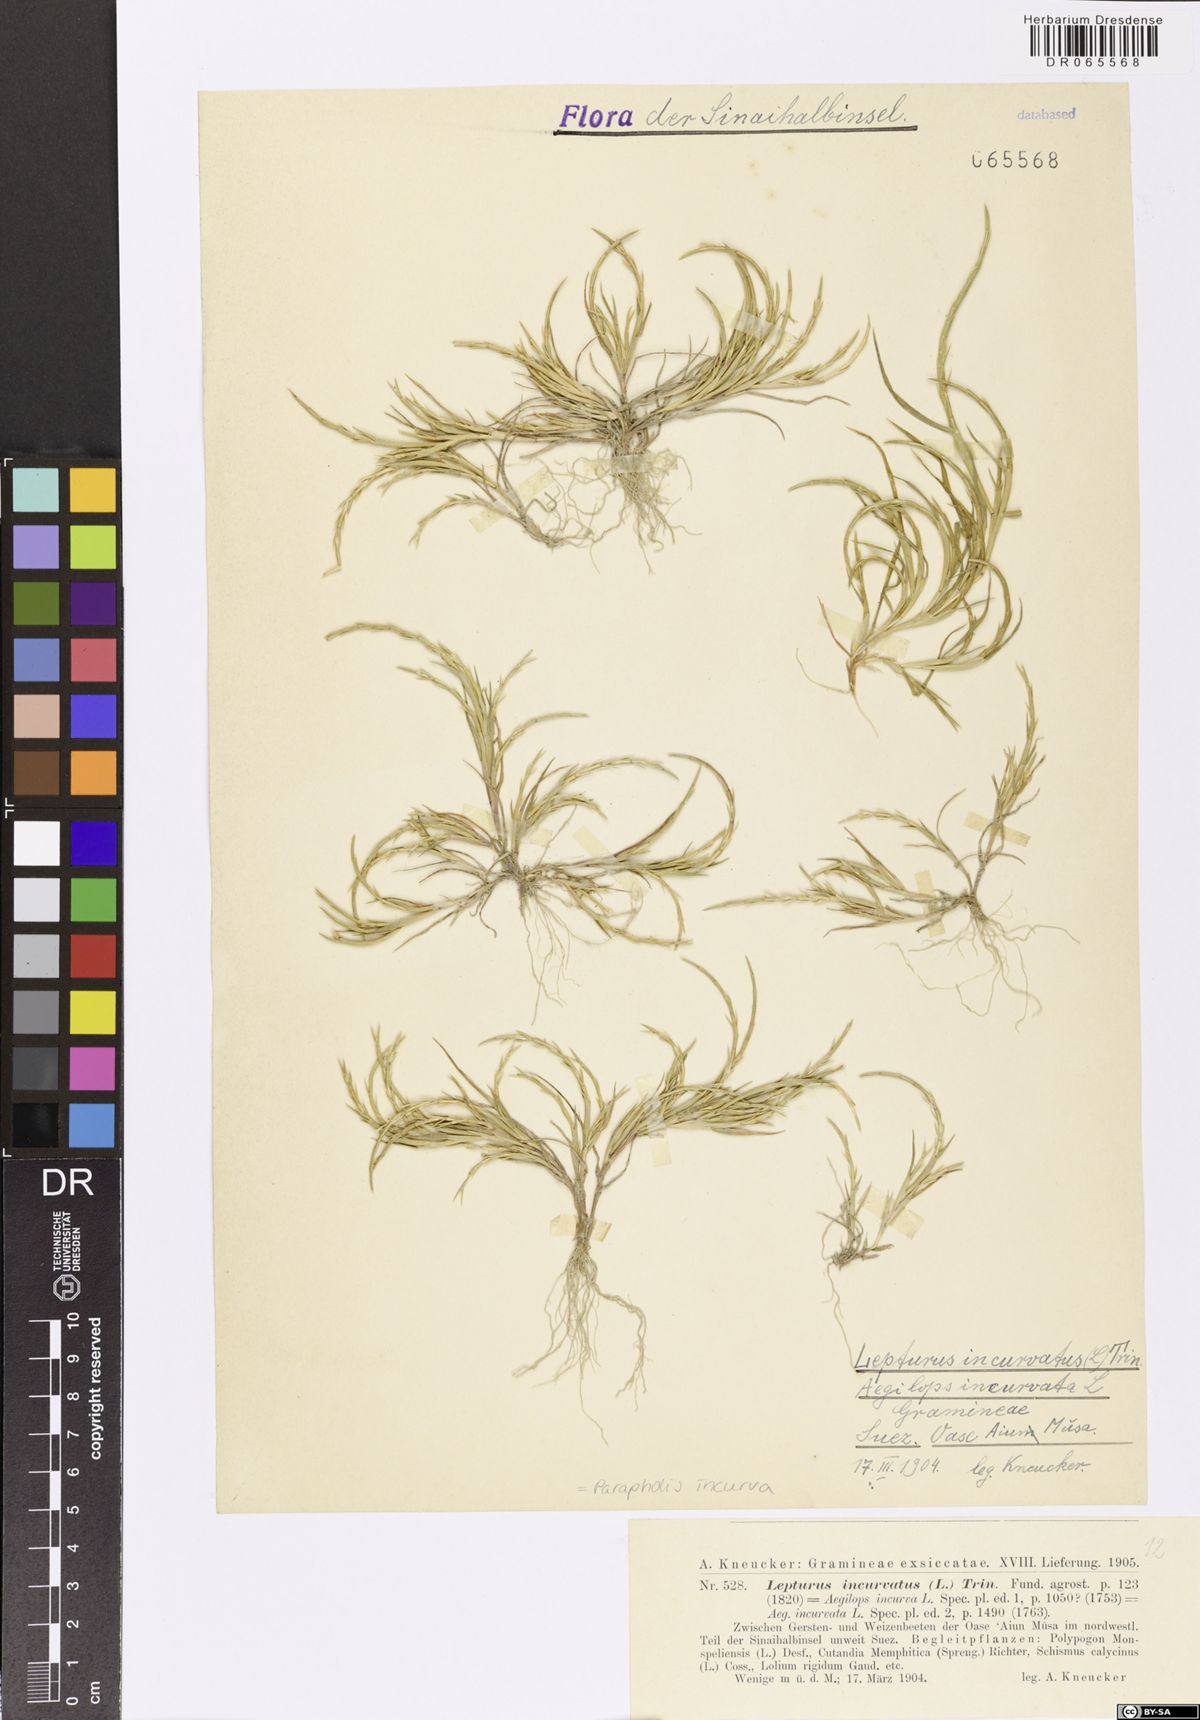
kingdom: Plantae
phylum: Tracheophyta
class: Liliopsida
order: Poales
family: Poaceae
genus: Parapholis
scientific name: Parapholis incurva
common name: Curved sicklegrass
